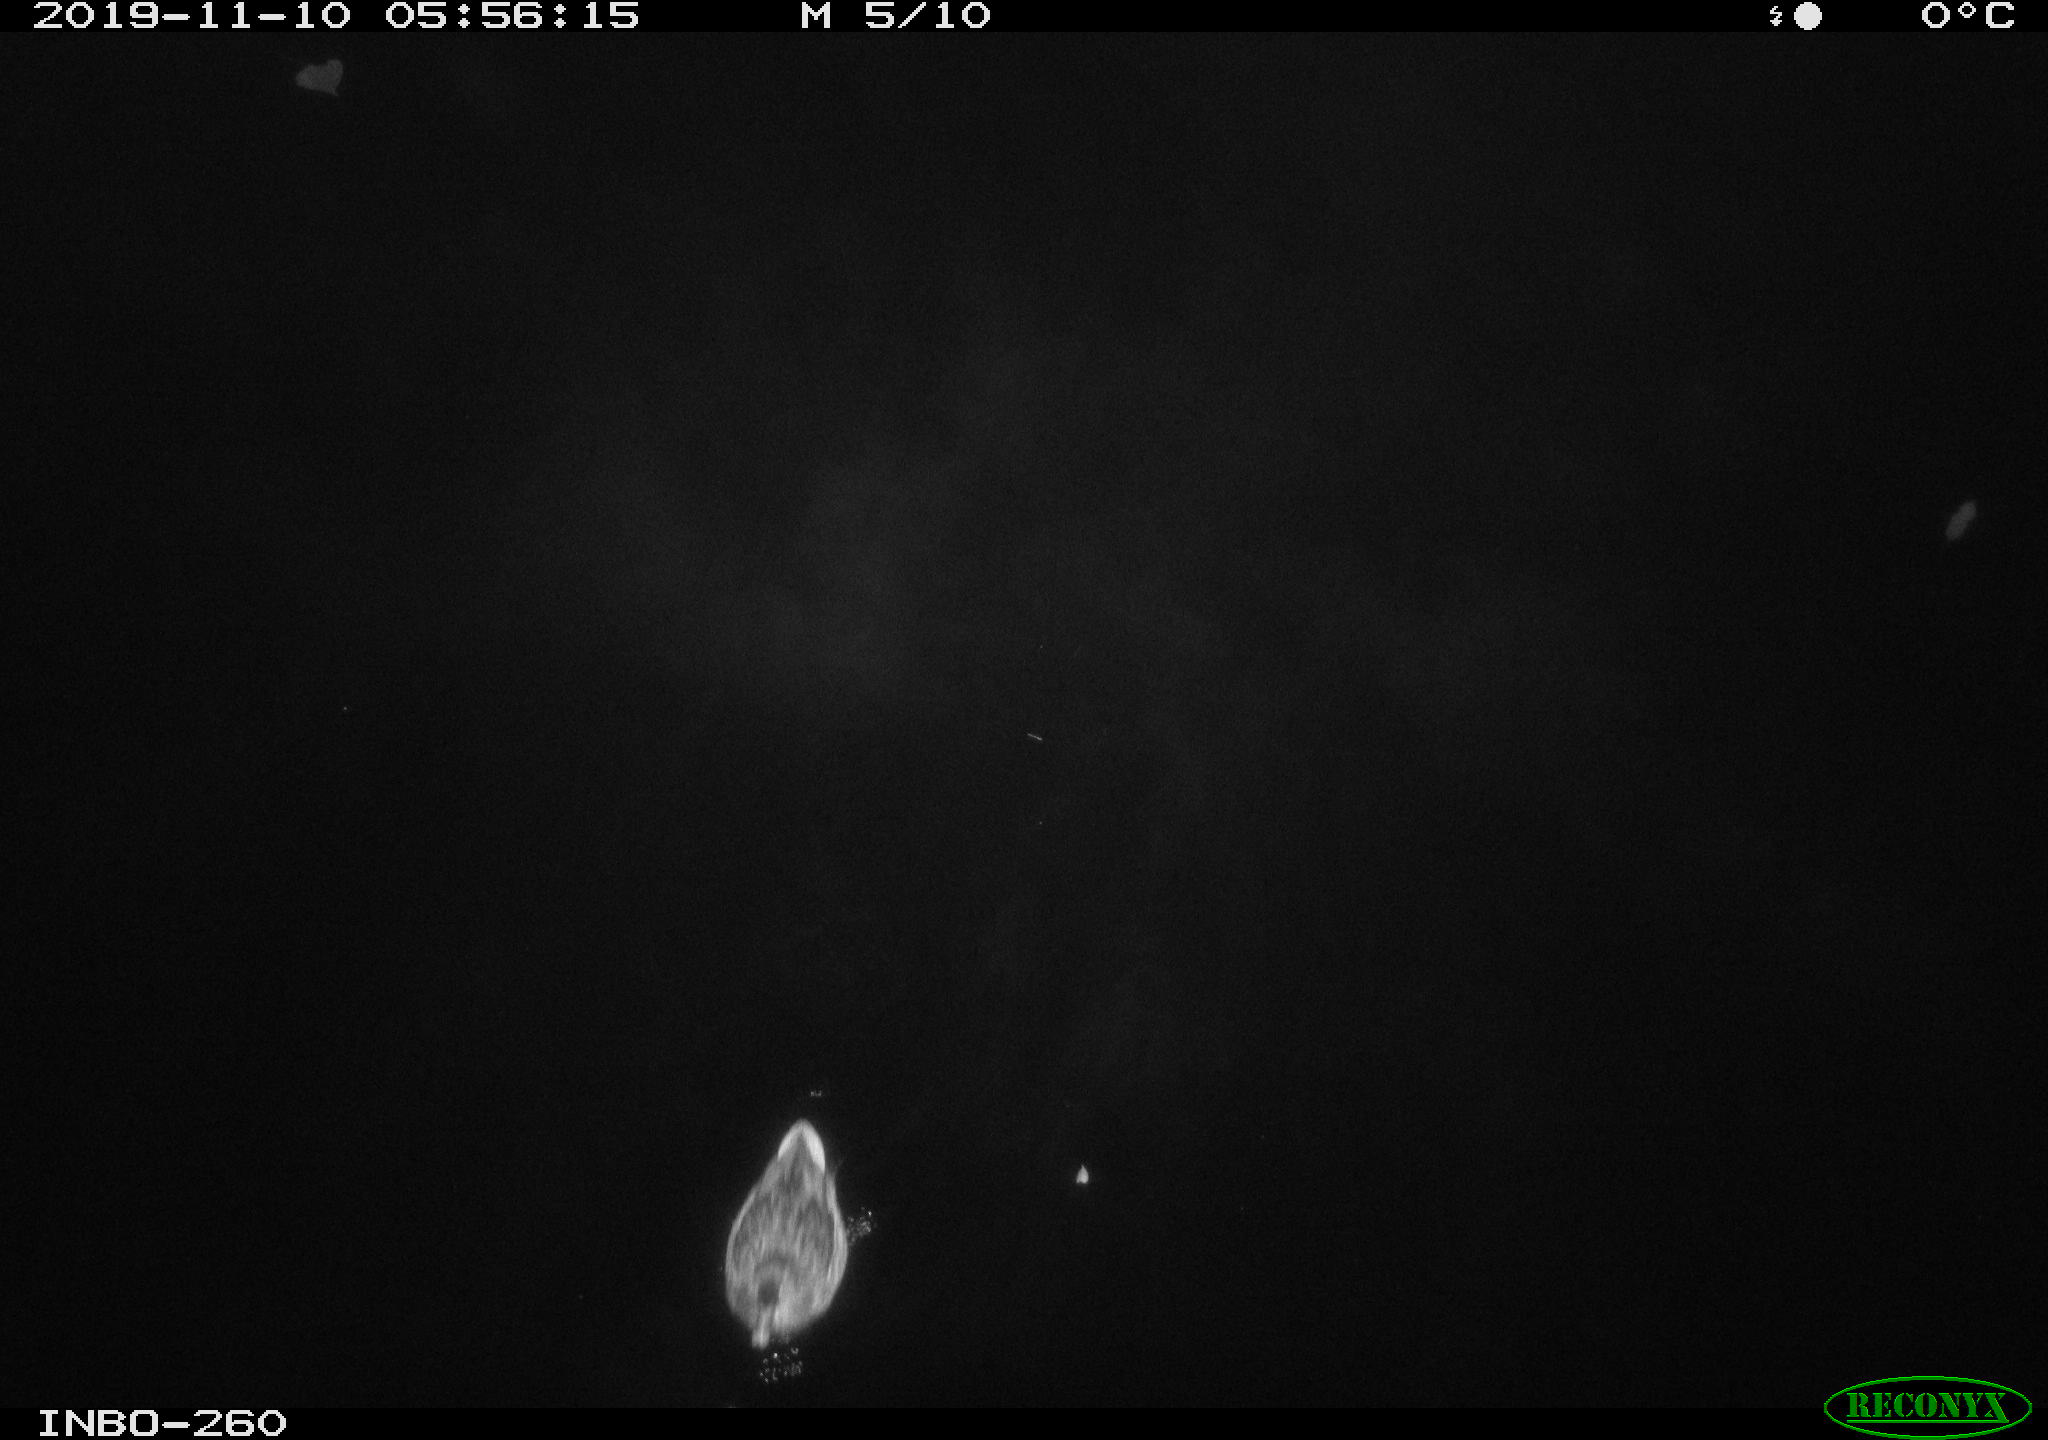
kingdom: Animalia
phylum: Chordata
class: Aves
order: Anseriformes
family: Anatidae
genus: Anas
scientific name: Anas platyrhynchos
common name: Mallard
